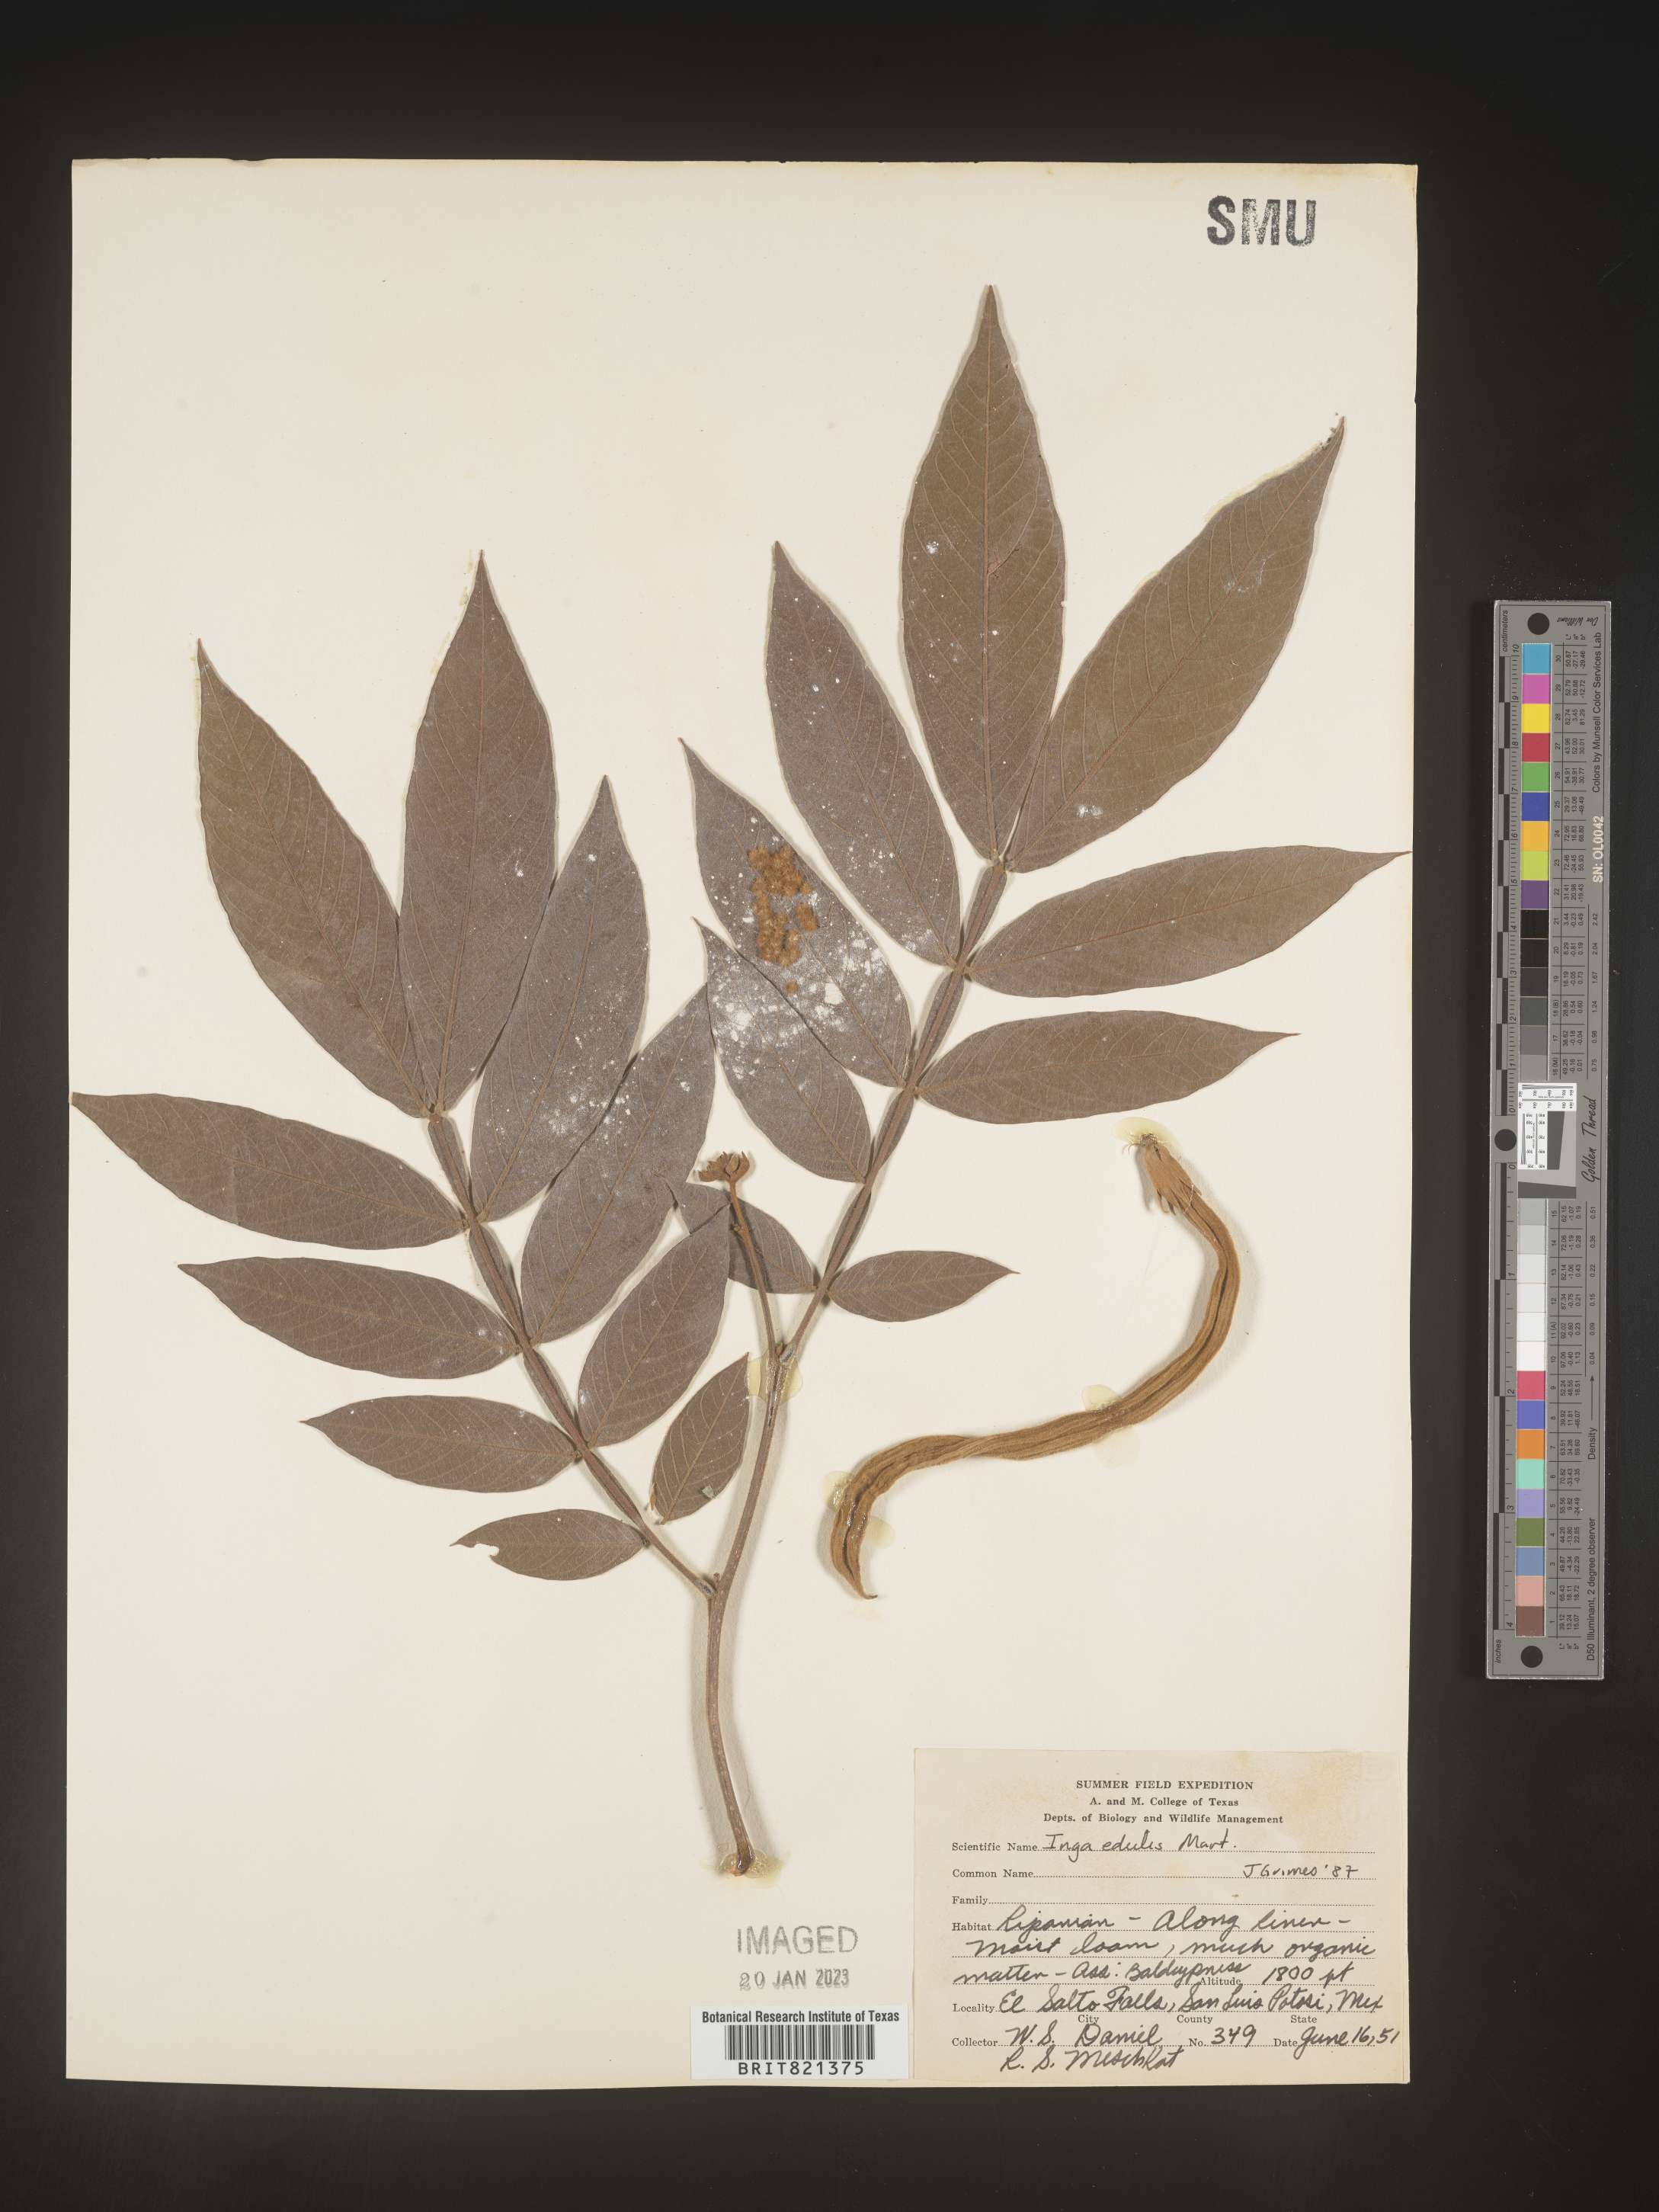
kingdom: Plantae
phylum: Tracheophyta
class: Magnoliopsida
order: Fabales
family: Fabaceae
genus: Inga
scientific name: Inga
